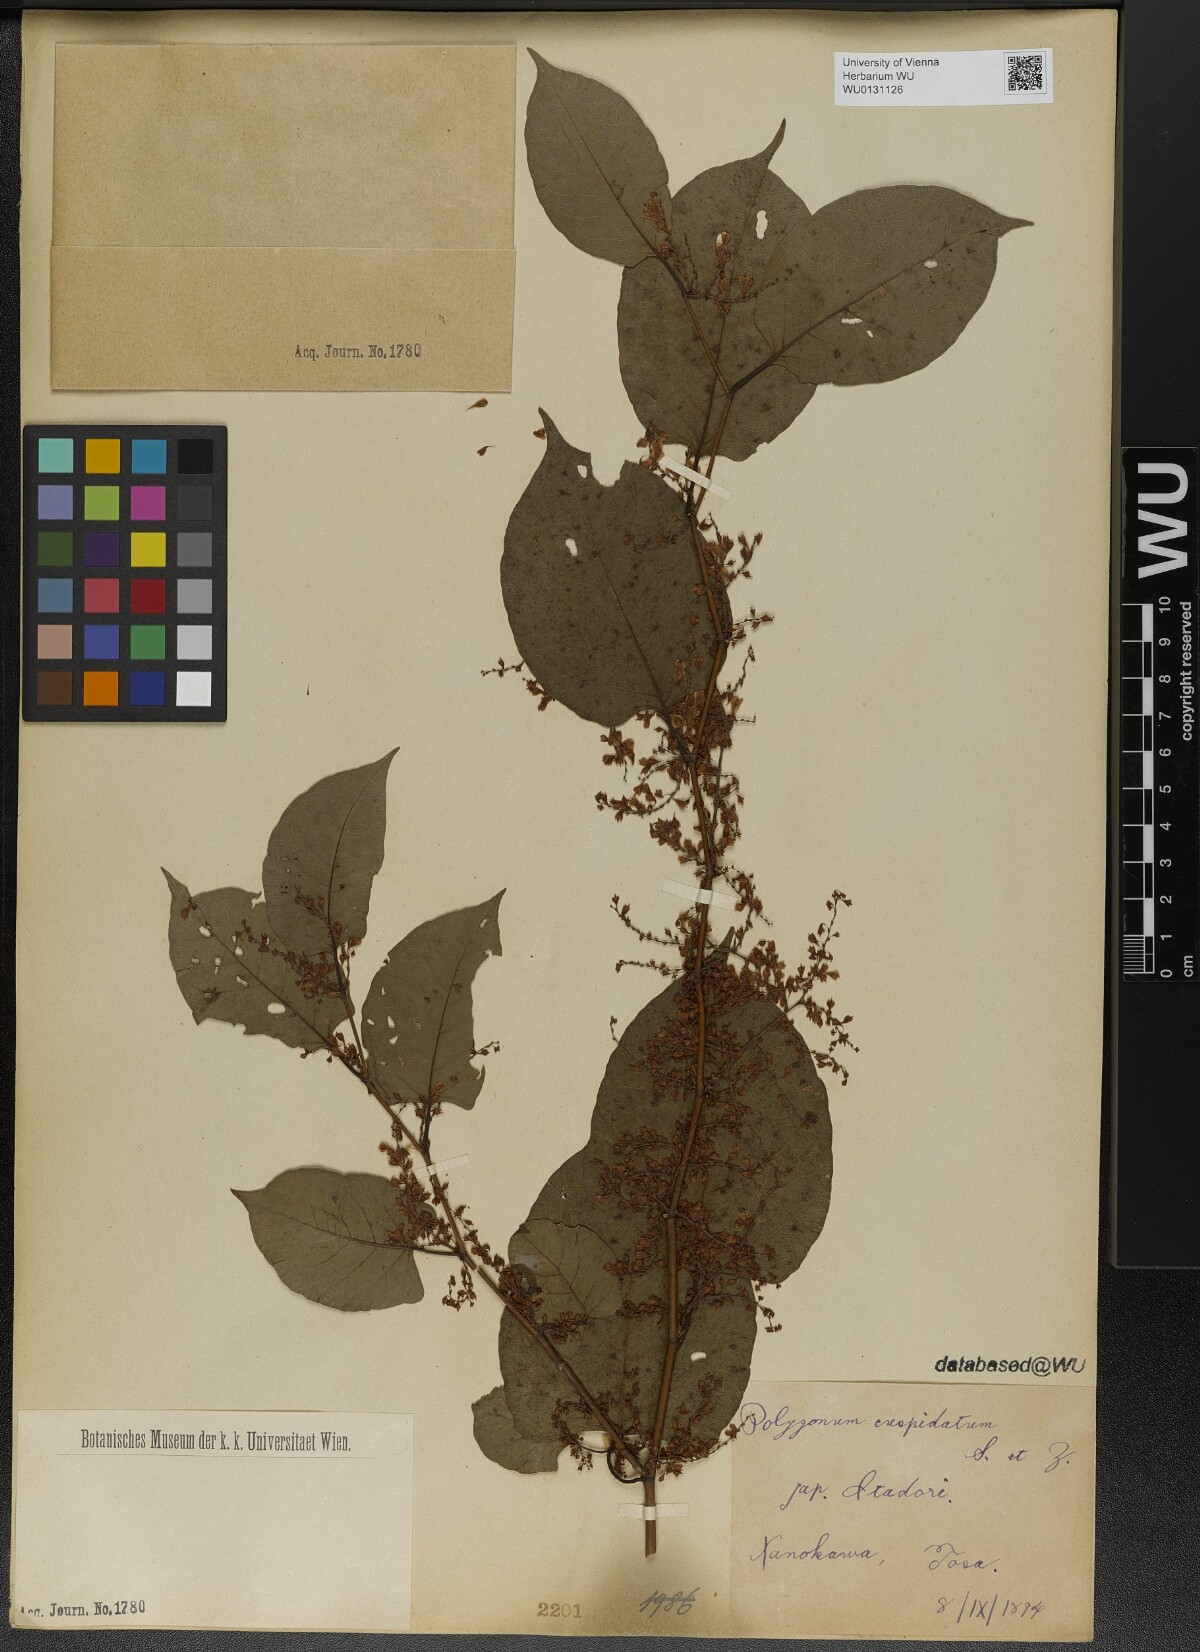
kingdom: Plantae
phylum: Tracheophyta
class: Magnoliopsida
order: Caryophyllales
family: Polygonaceae
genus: Reynoutria
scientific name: Reynoutria japonica
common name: Japanese knotweed
